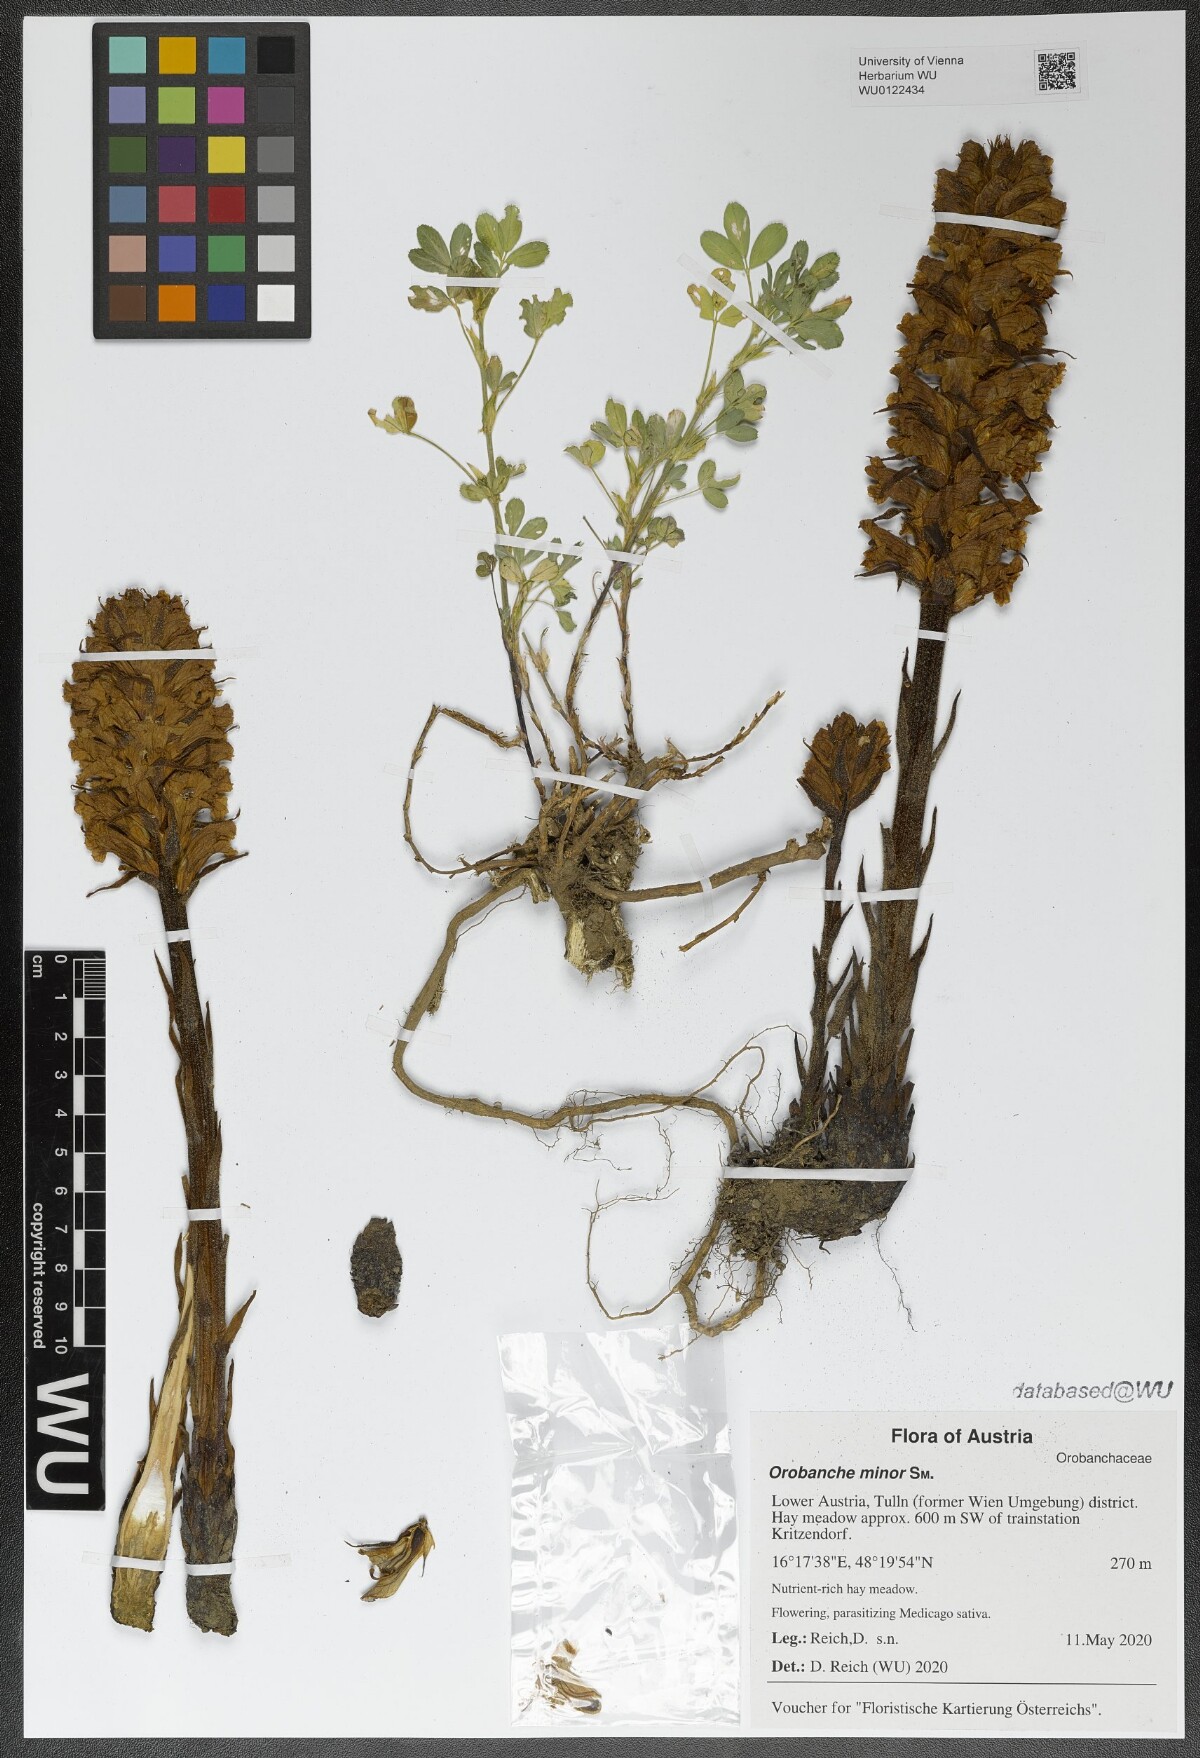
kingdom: Plantae
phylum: Tracheophyta
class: Magnoliopsida
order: Lamiales
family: Orobanchaceae
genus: Orobanche
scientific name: Orobanche minor
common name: Common broomrape
